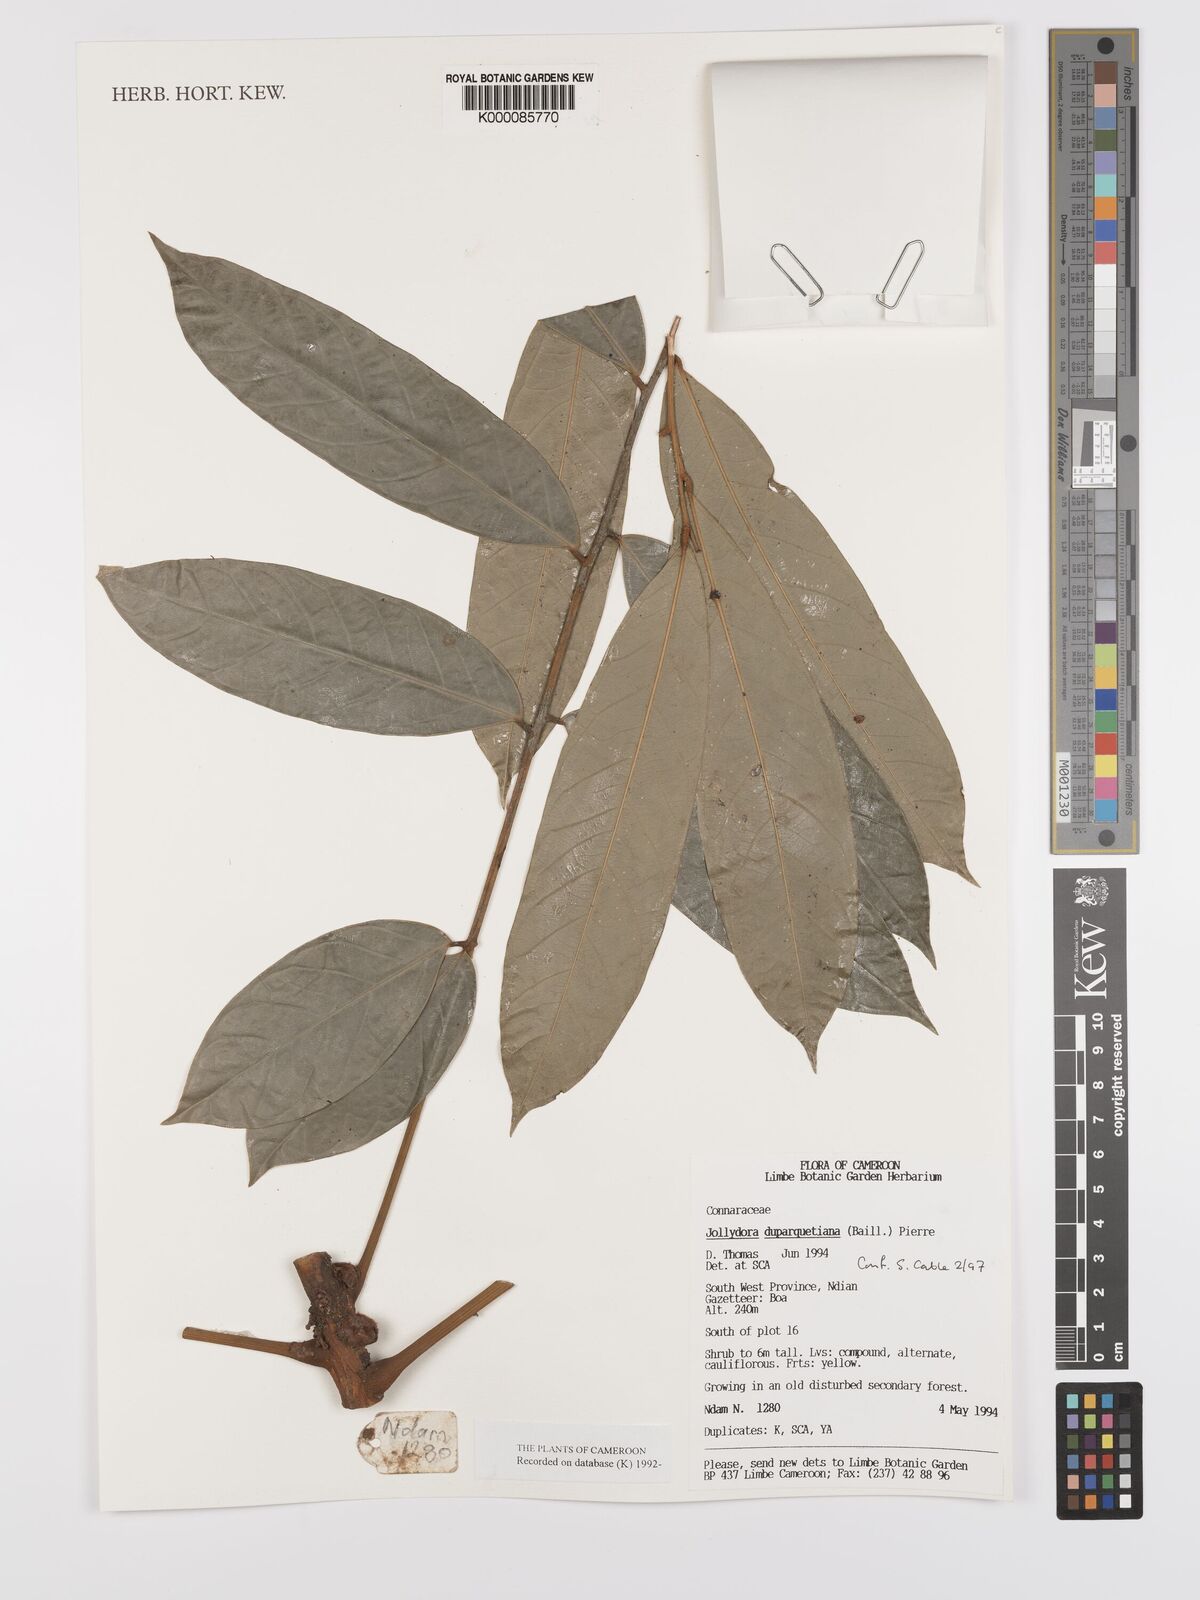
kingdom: Plantae
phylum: Tracheophyta
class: Magnoliopsida
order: Oxalidales
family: Connaraceae
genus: Jollydora
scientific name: Jollydora duparquetiana
